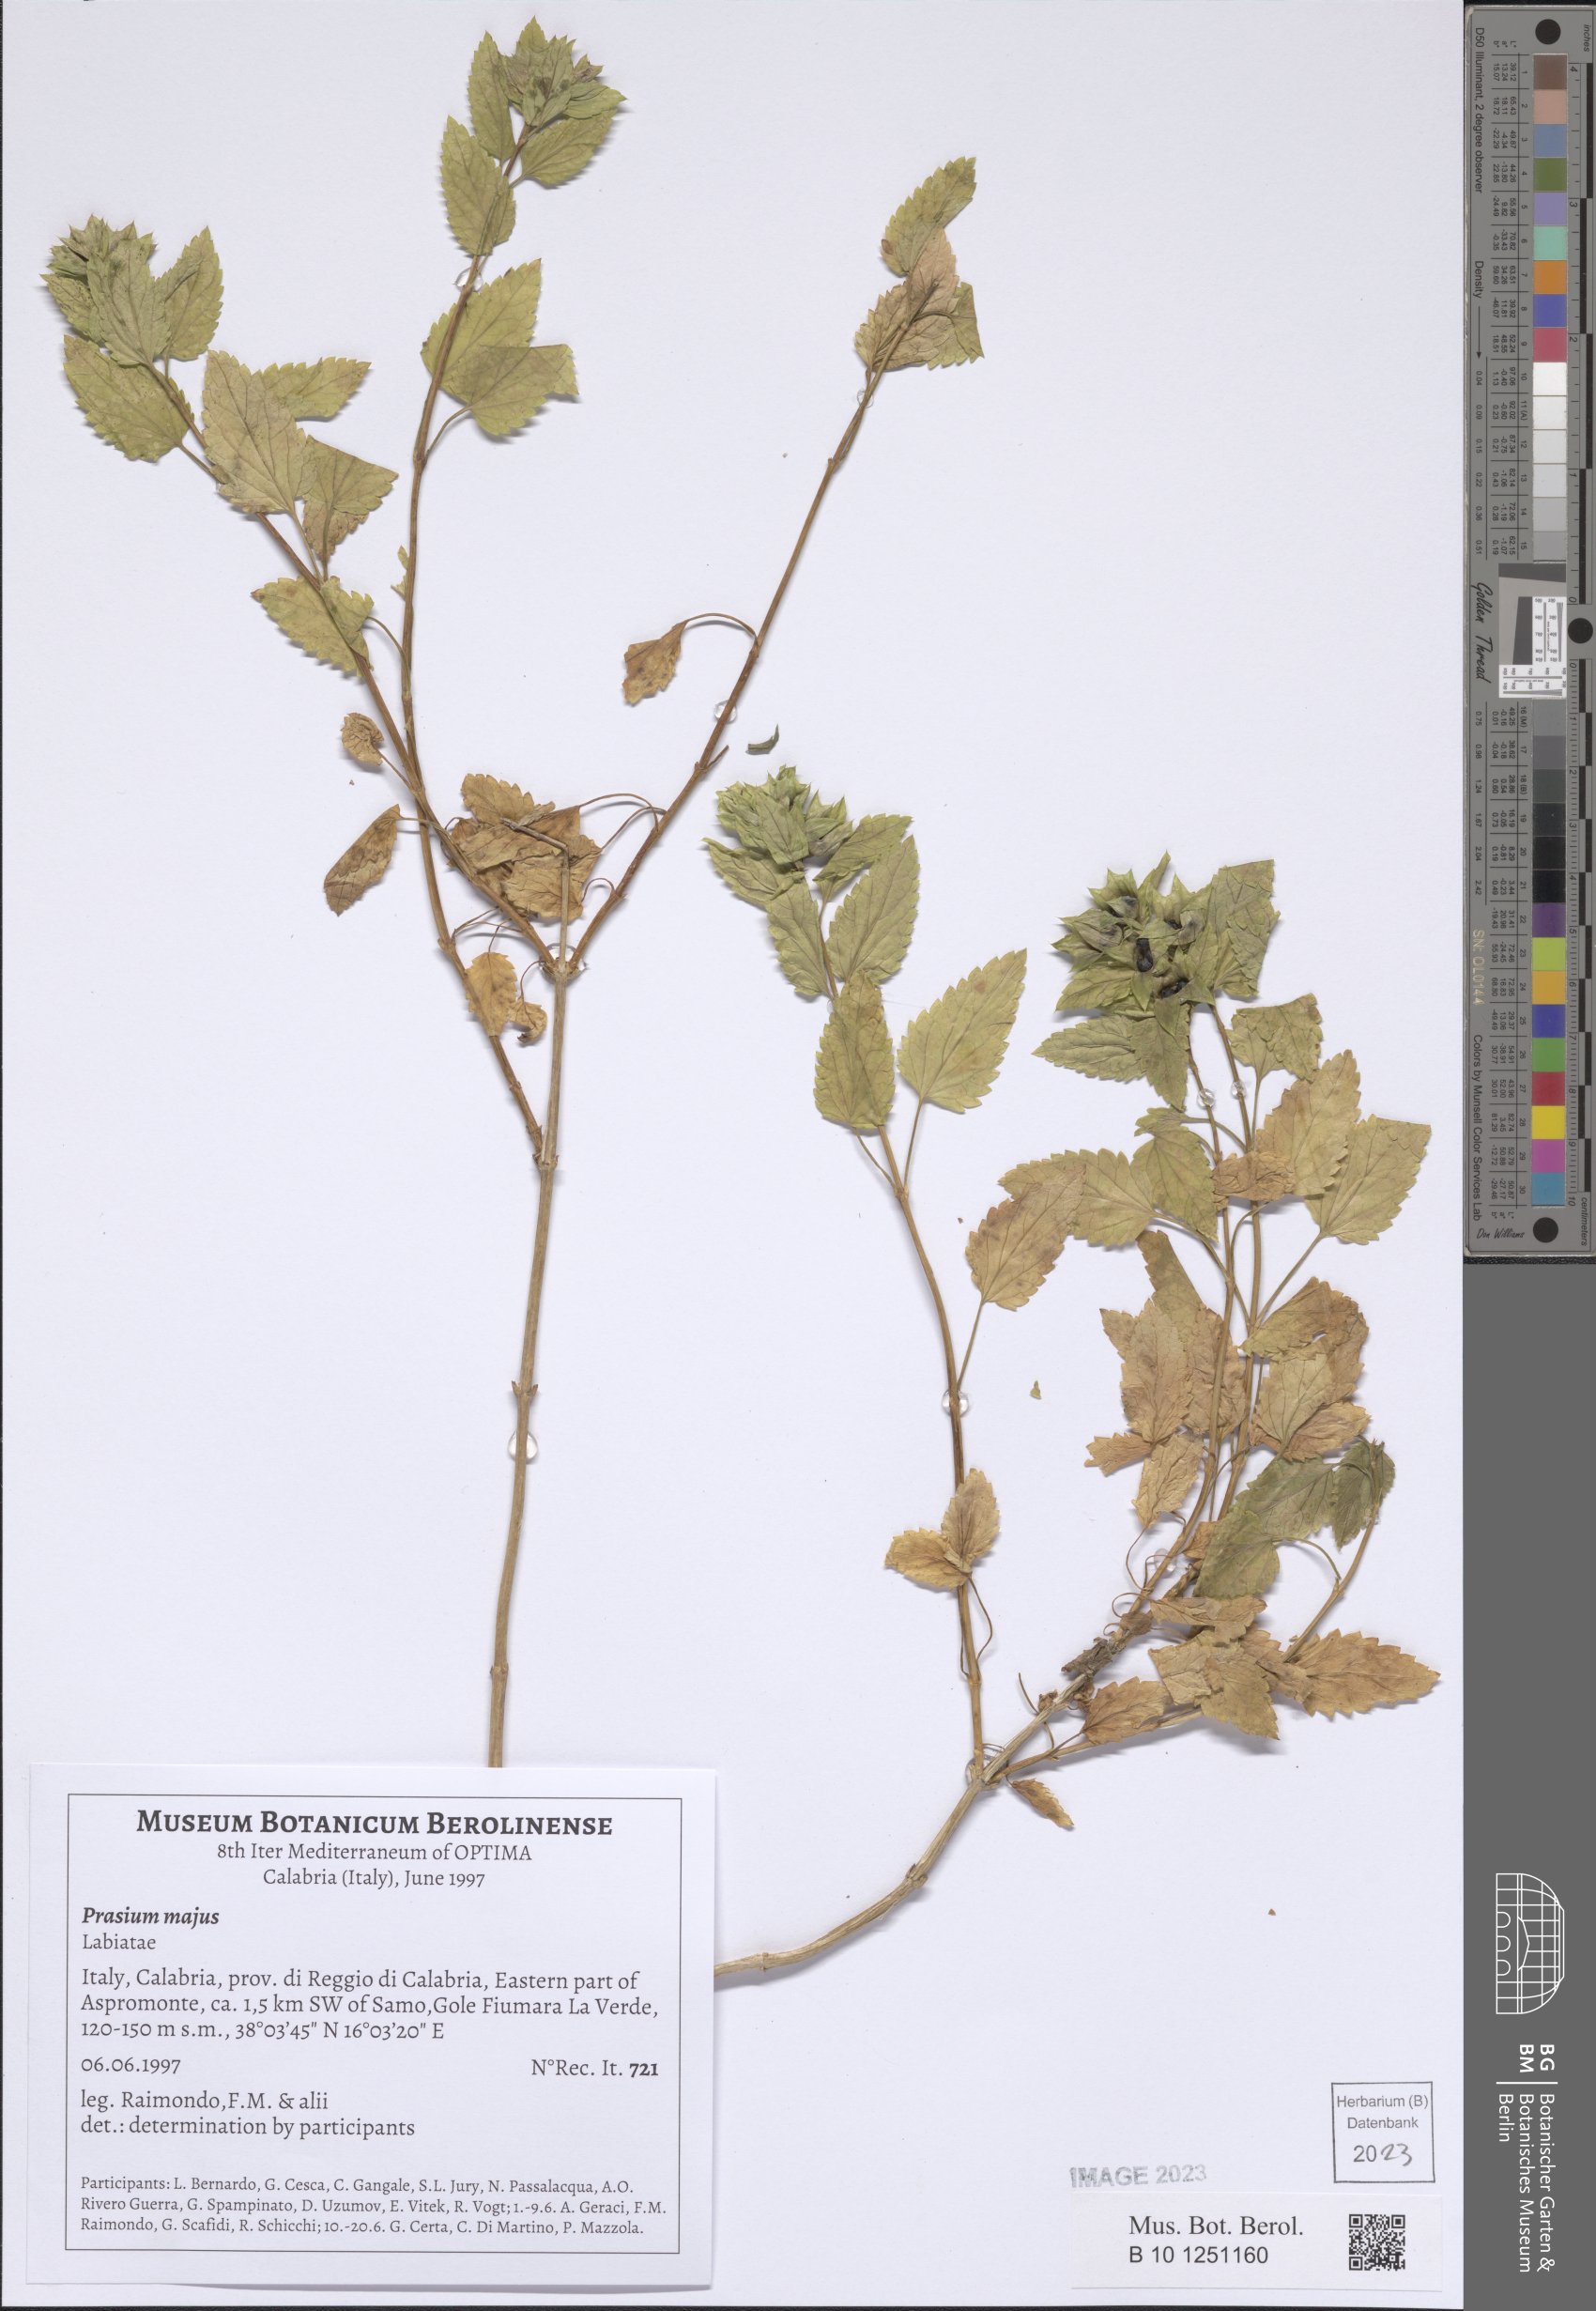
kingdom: Plantae
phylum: Tracheophyta
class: Magnoliopsida
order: Lamiales
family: Lamiaceae
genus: Prasium
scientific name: Prasium majus
